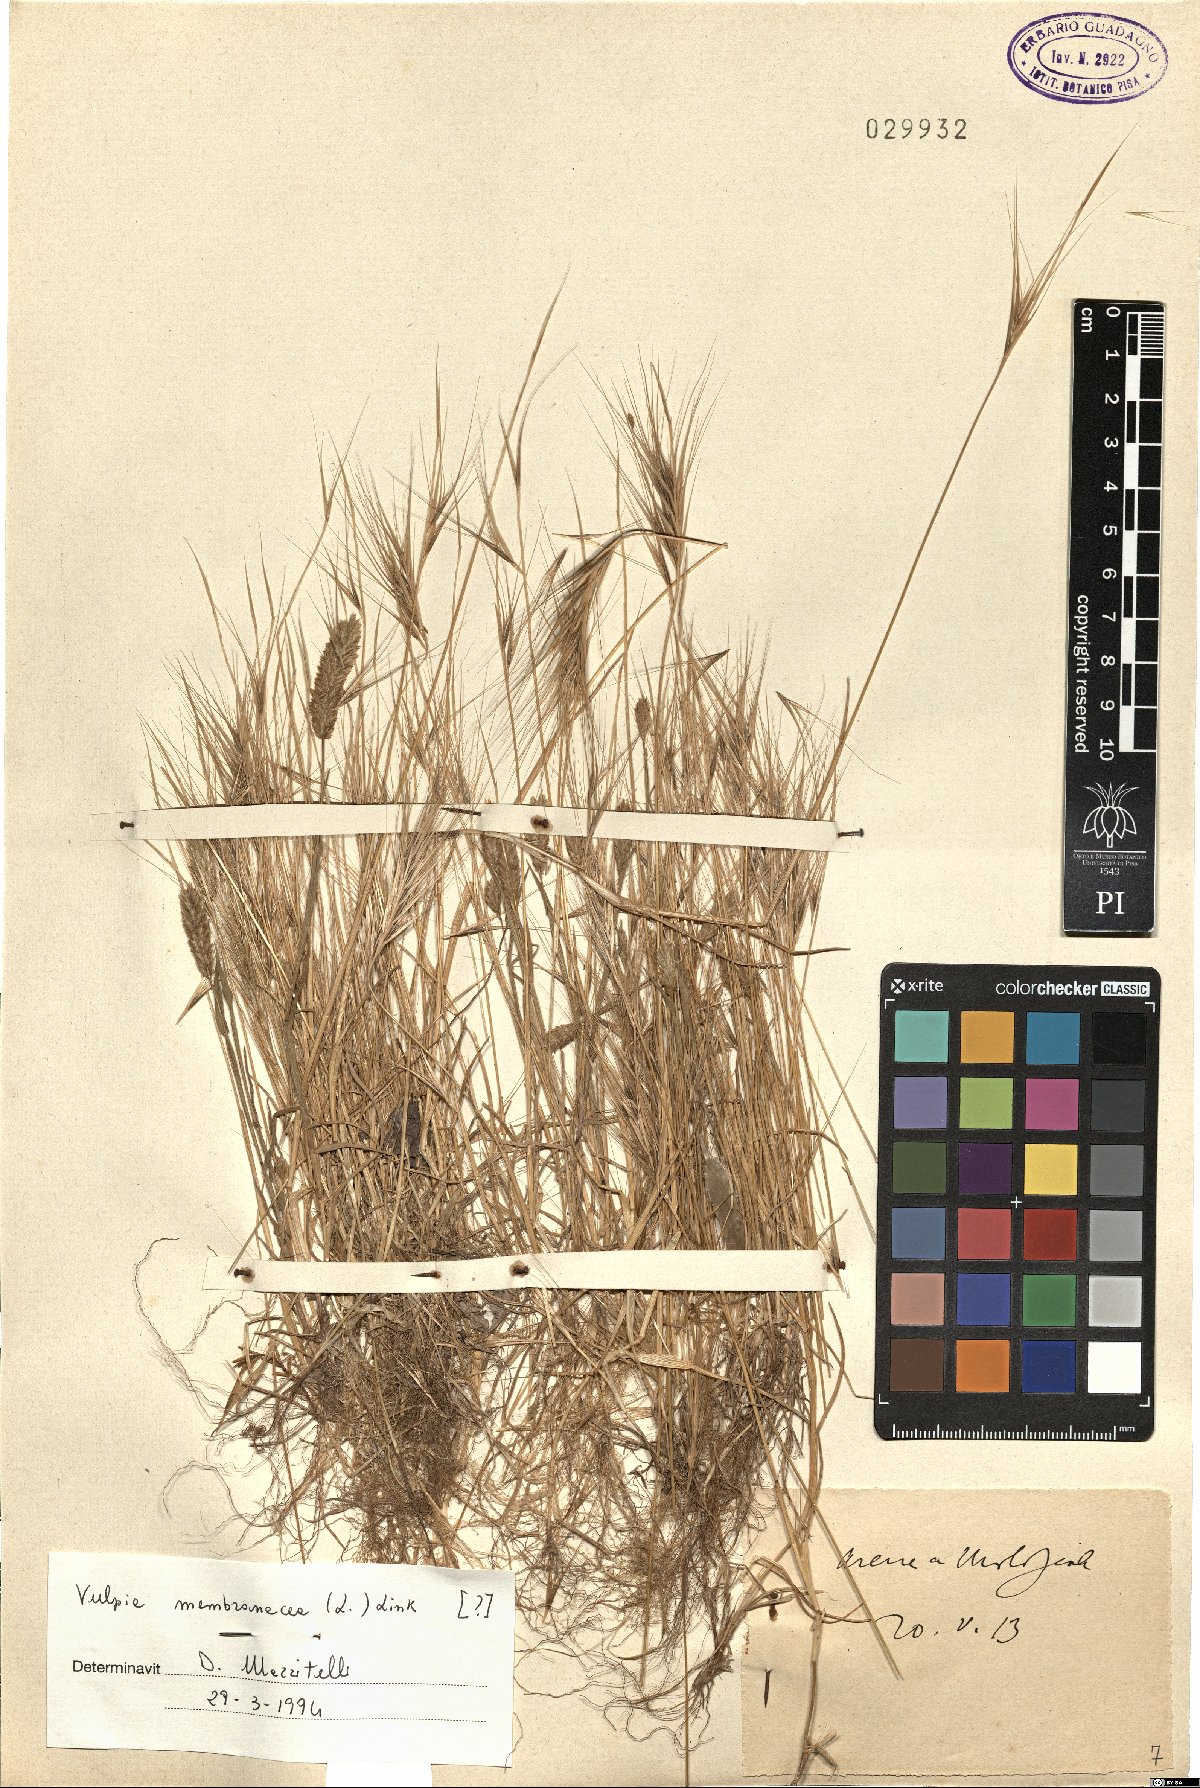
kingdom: Plantae
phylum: Tracheophyta
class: Liliopsida
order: Poales
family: Poaceae
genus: Festuca
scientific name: Festuca membranacea
